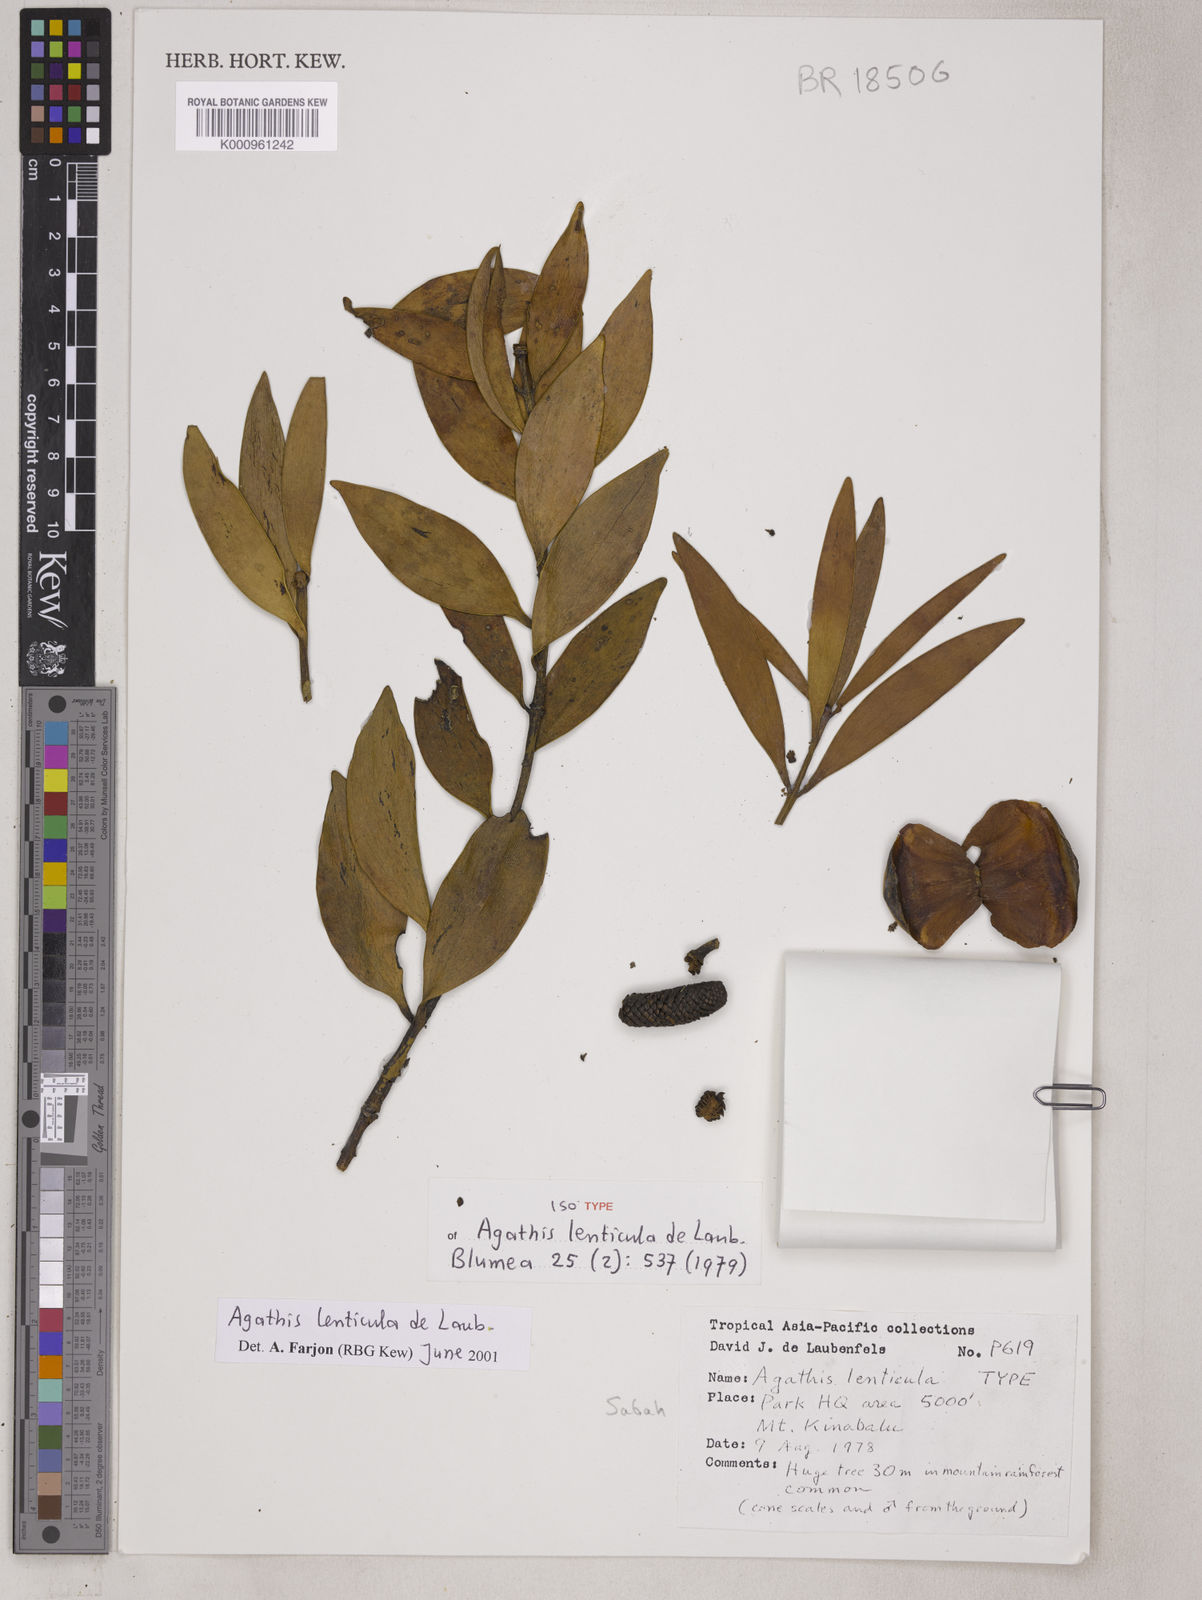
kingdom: Plantae
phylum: Tracheophyta
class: Pinopsida
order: Pinales
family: Araucariaceae
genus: Agathis
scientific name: Agathis lenticula
